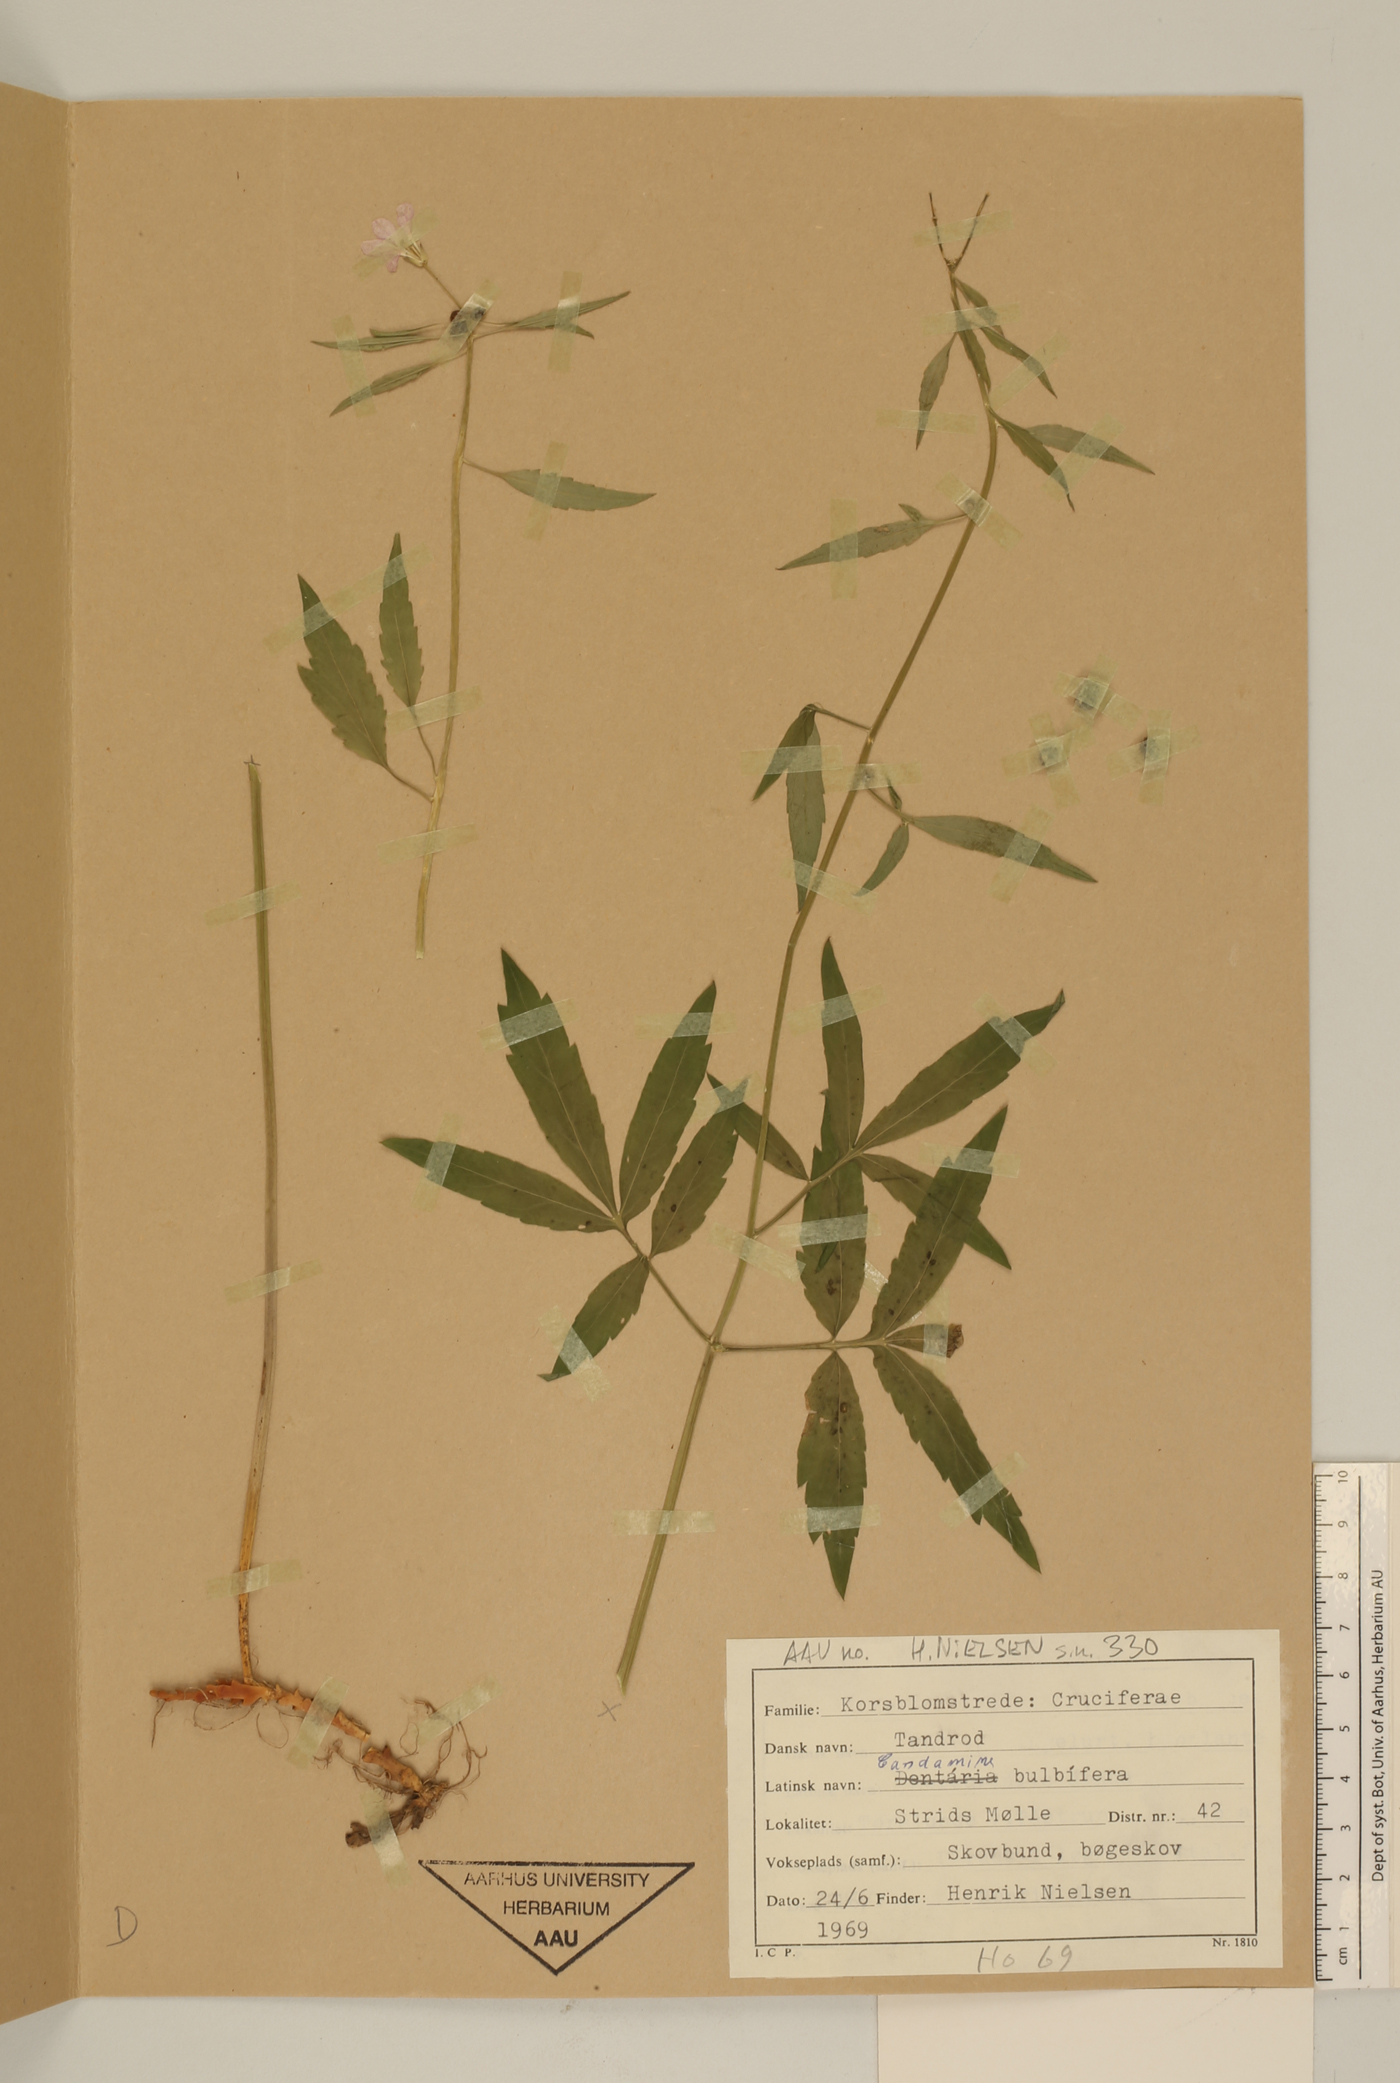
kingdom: Plantae
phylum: Tracheophyta
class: Magnoliopsida
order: Brassicales
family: Brassicaceae
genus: Cardamine
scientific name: Cardamine bulbifera
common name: Coralroot bittercress
